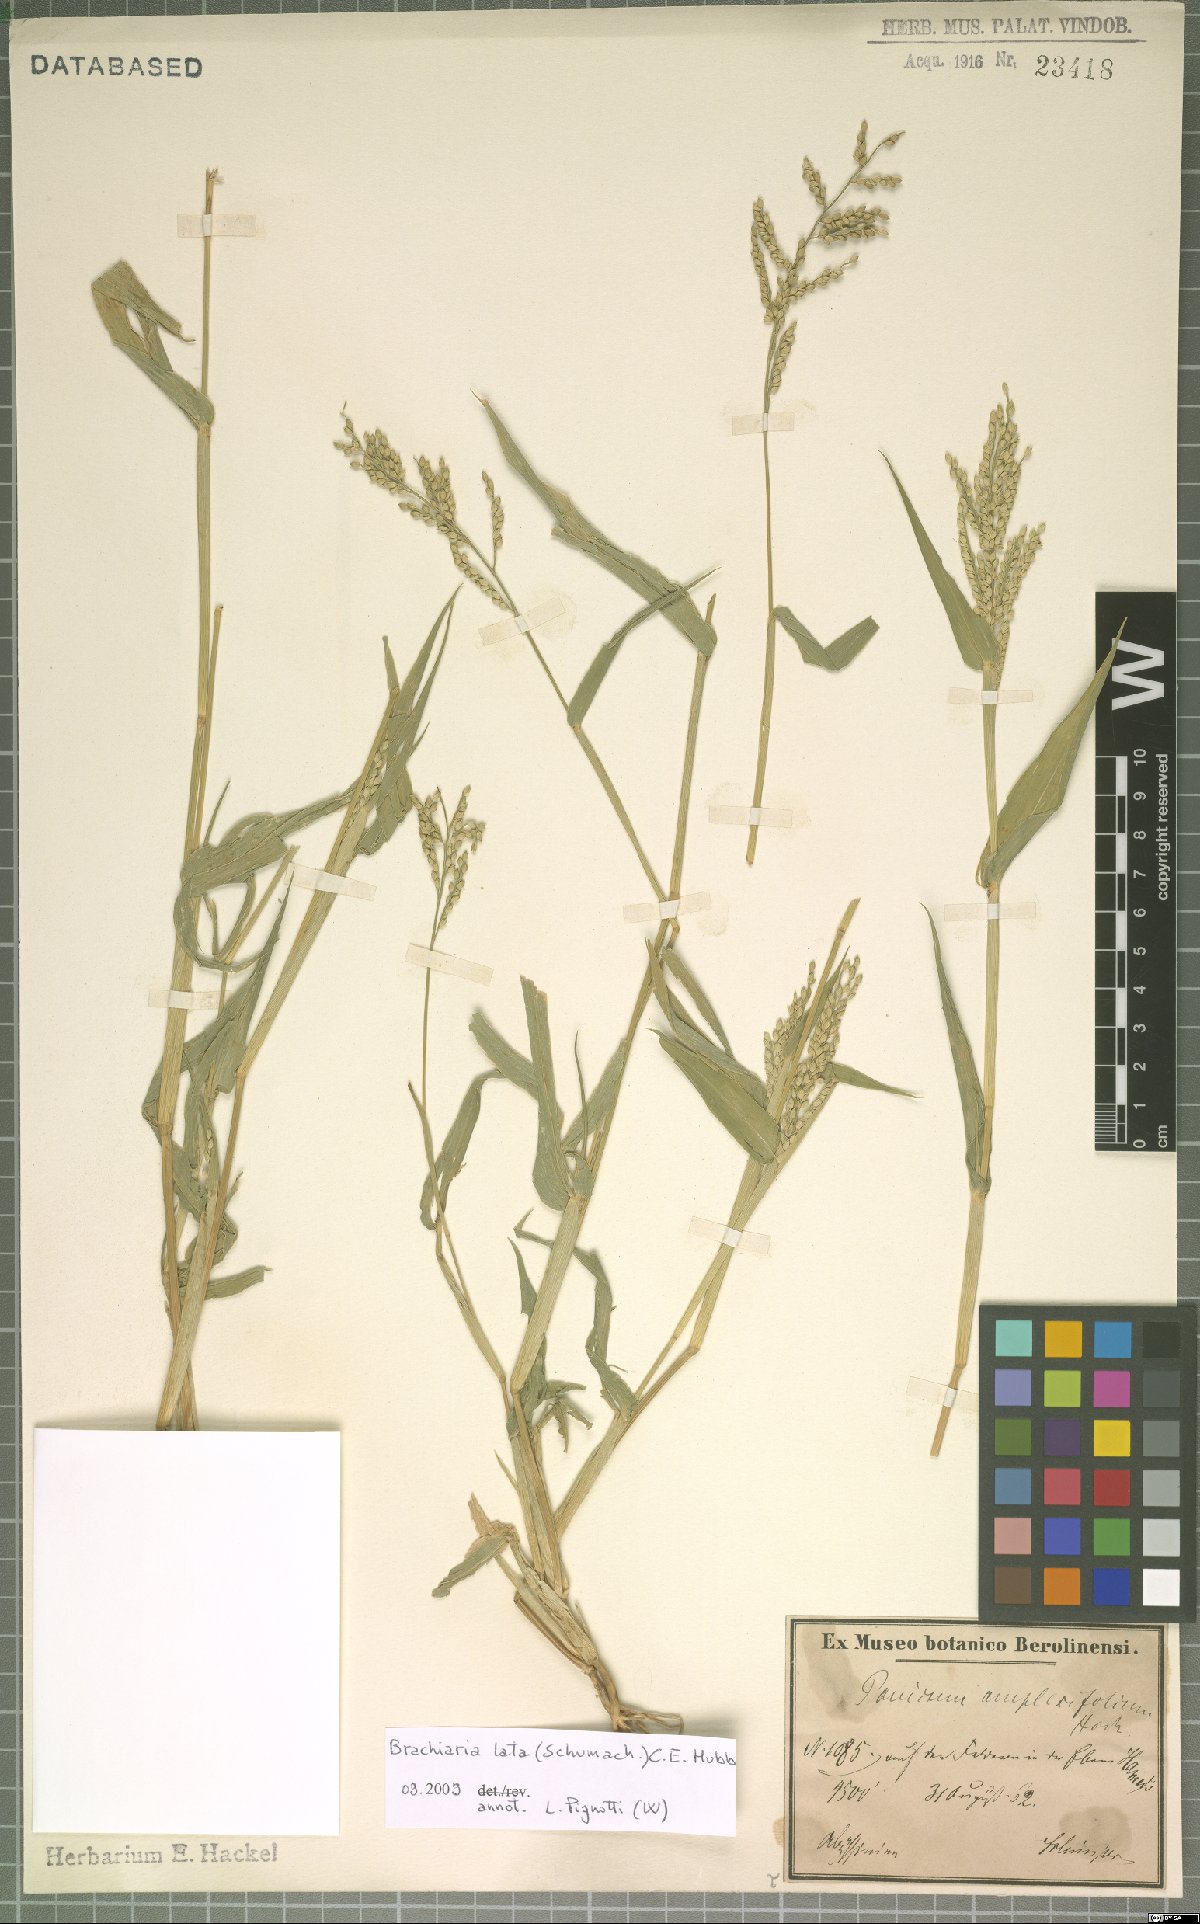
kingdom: Plantae
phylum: Tracheophyta
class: Liliopsida
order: Poales
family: Poaceae
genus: Urochloa
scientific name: Urochloa lata
